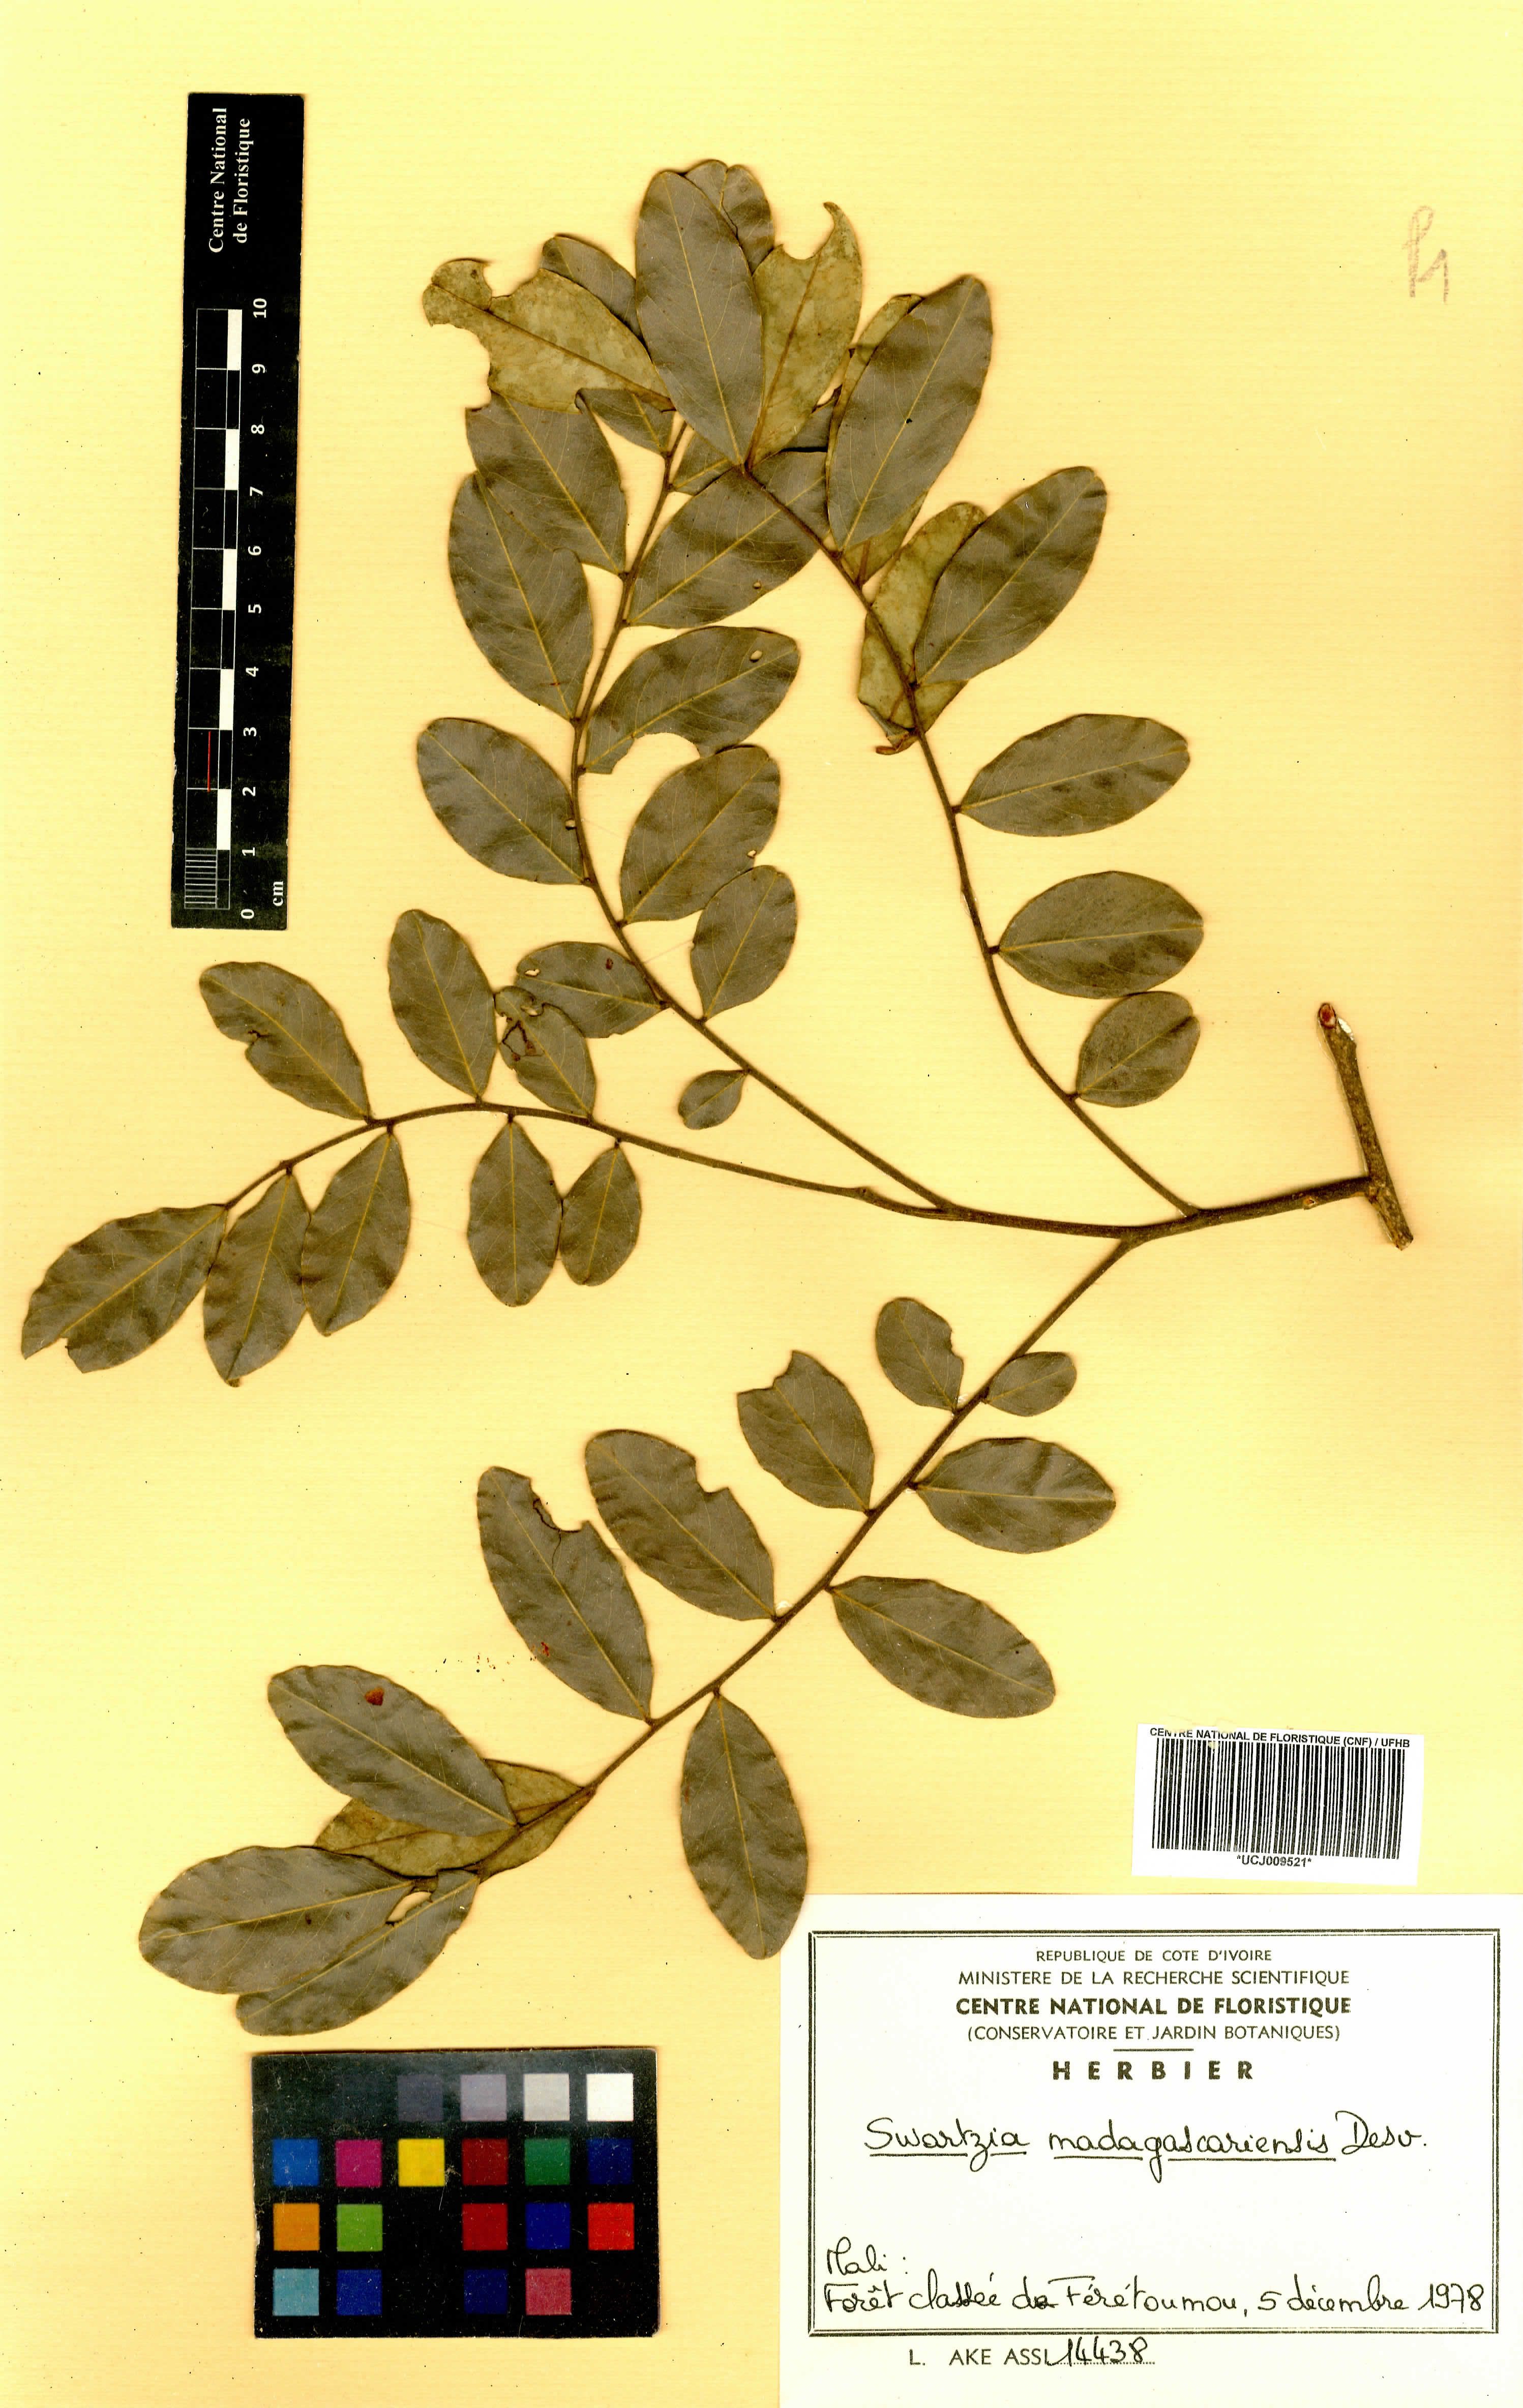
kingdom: Plantae
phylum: Tracheophyta
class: Magnoliopsida
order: Fabales
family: Fabaceae
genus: Bobgunnia
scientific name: Bobgunnia madagascariensis
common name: Snake bean plant
